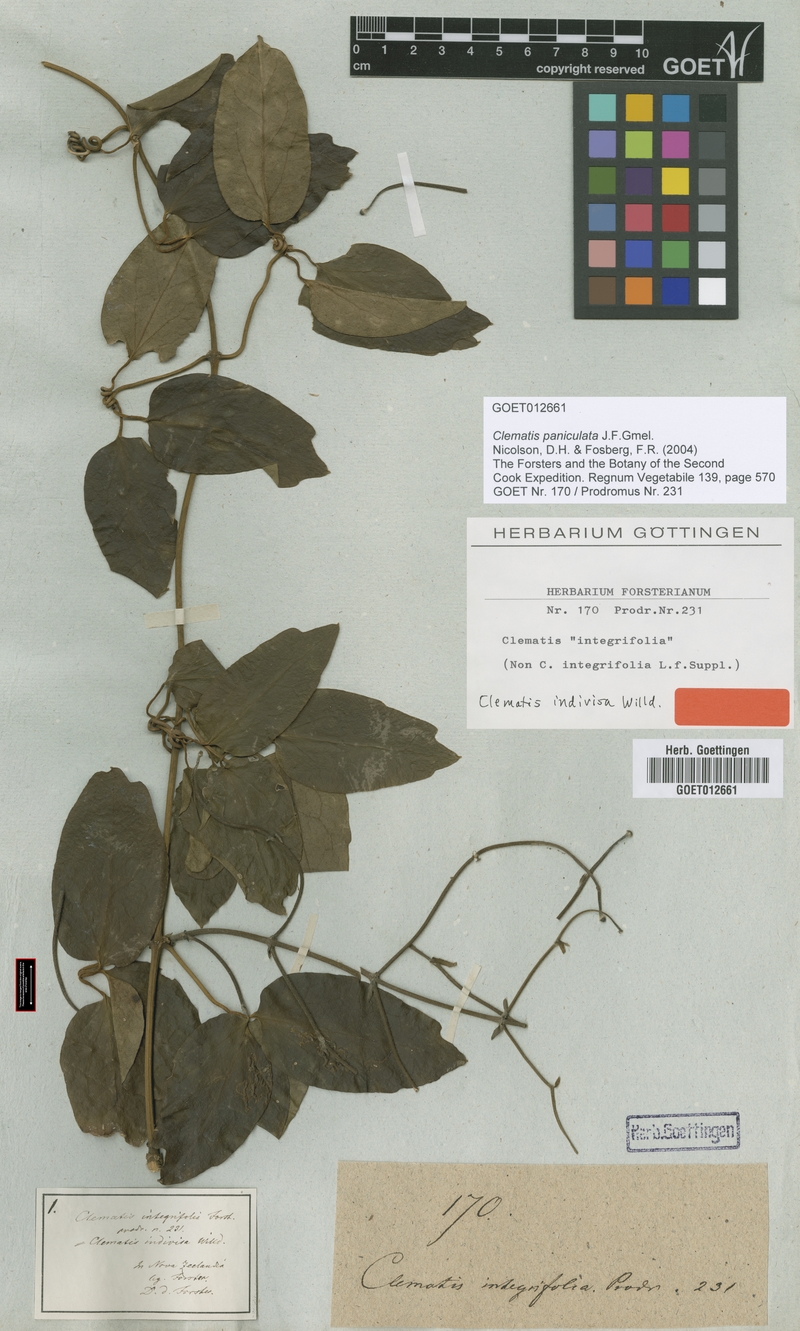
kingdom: Plantae
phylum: Tracheophyta
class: Magnoliopsida
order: Ranunculales
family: Ranunculaceae
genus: Clematis
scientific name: Clematis paniculata
